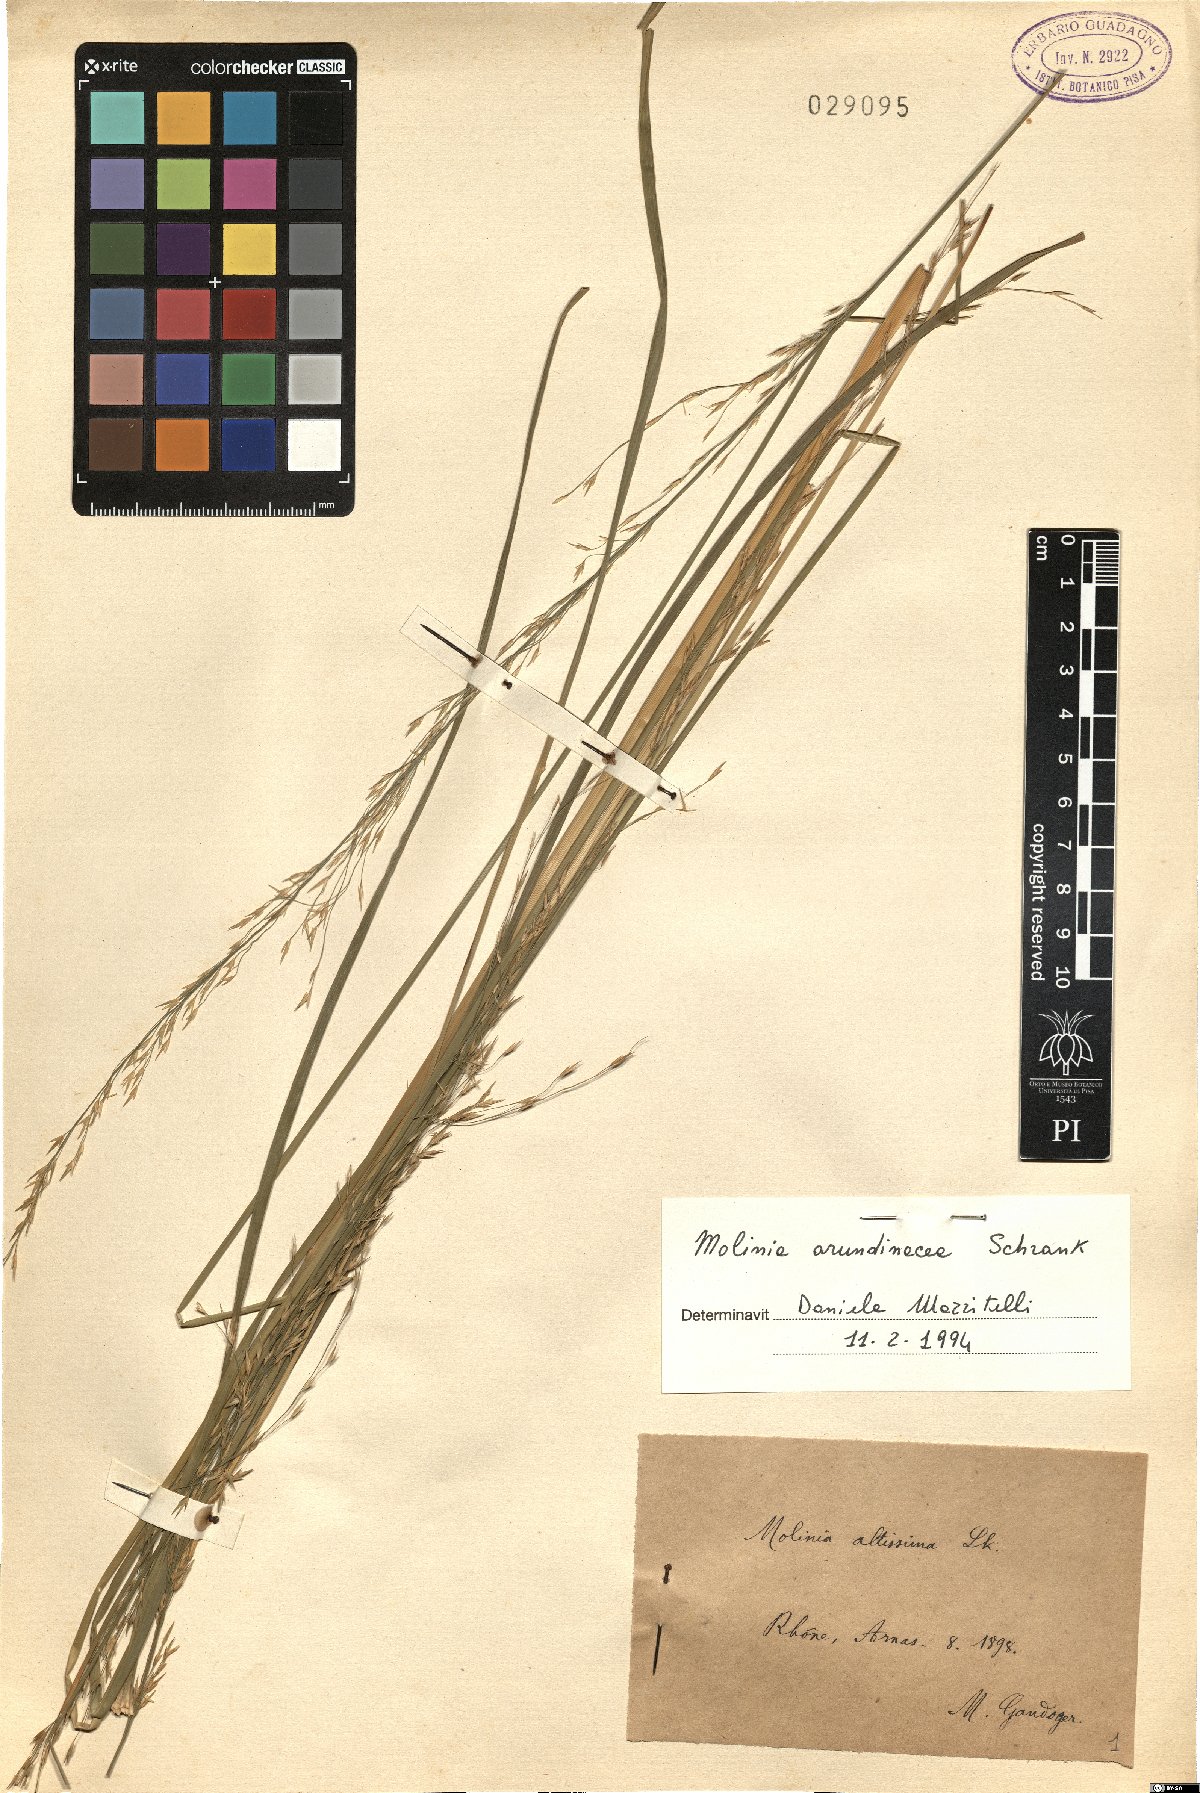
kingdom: Plantae
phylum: Tracheophyta
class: Liliopsida
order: Poales
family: Poaceae
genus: Molinia
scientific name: Molinia arundinacea
